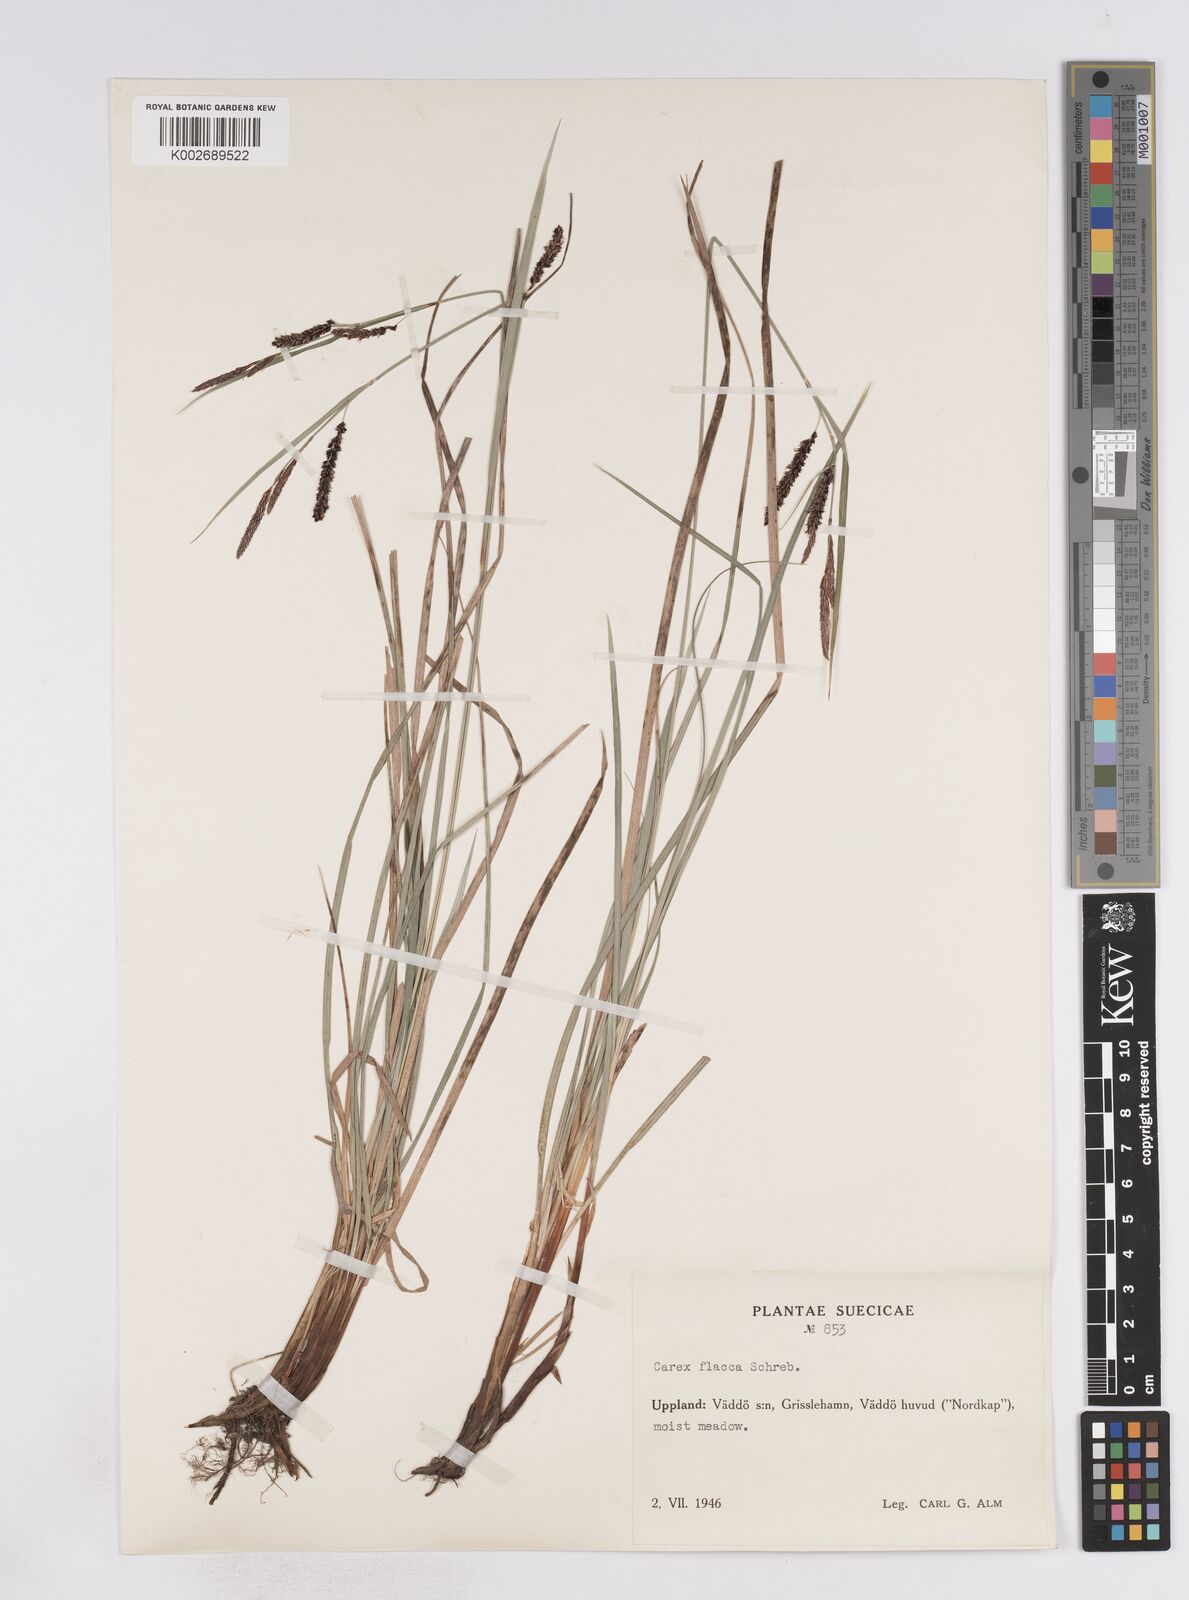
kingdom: Plantae
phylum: Tracheophyta
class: Liliopsida
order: Poales
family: Cyperaceae
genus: Carex
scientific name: Carex flacca
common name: Glaucous sedge
